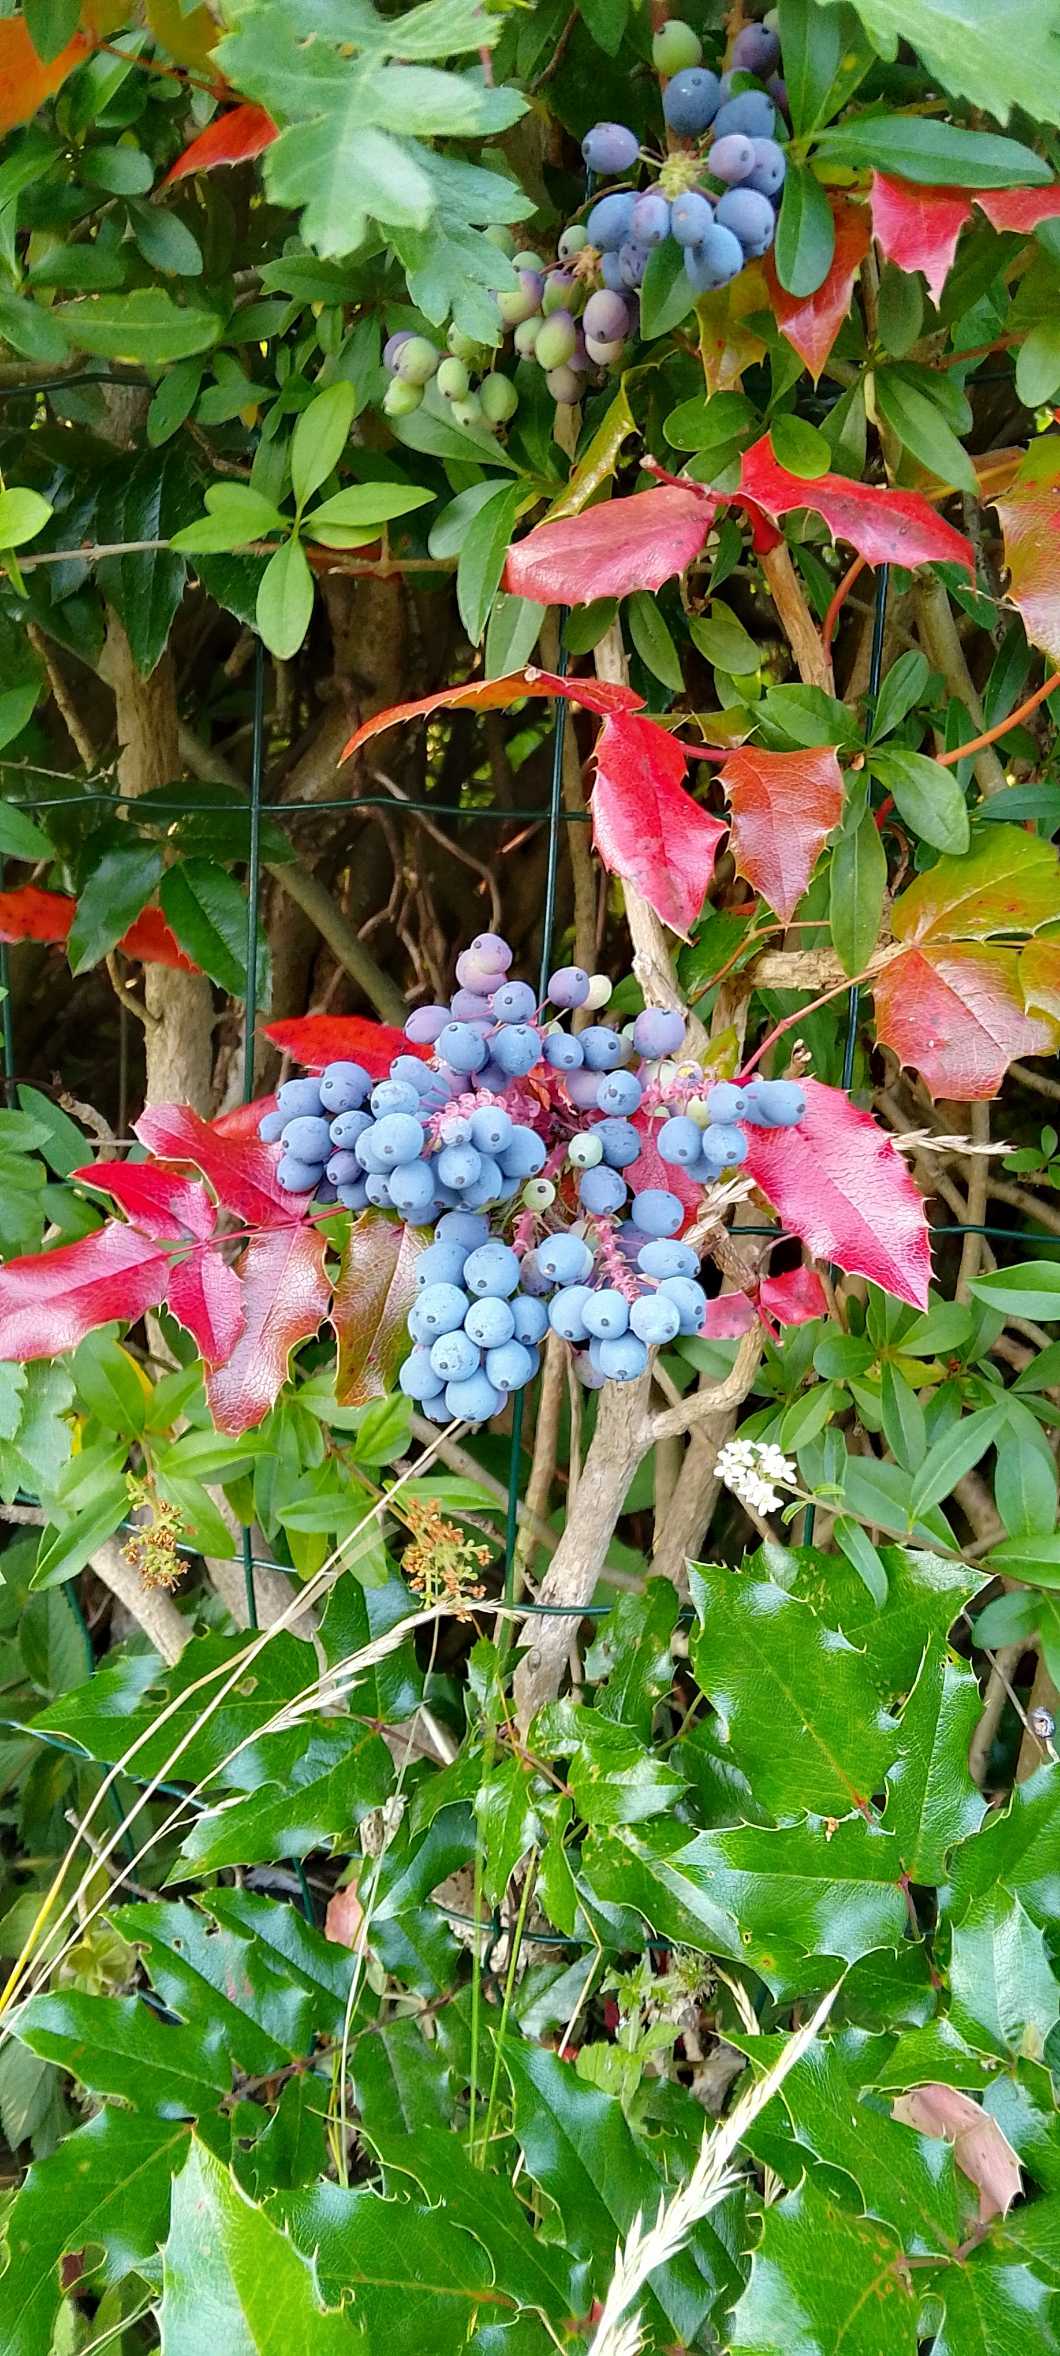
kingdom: Plantae
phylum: Tracheophyta
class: Magnoliopsida
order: Ranunculales
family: Berberidaceae
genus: Mahonia
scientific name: Mahonia aquifolium
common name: Almindelig mahonie
